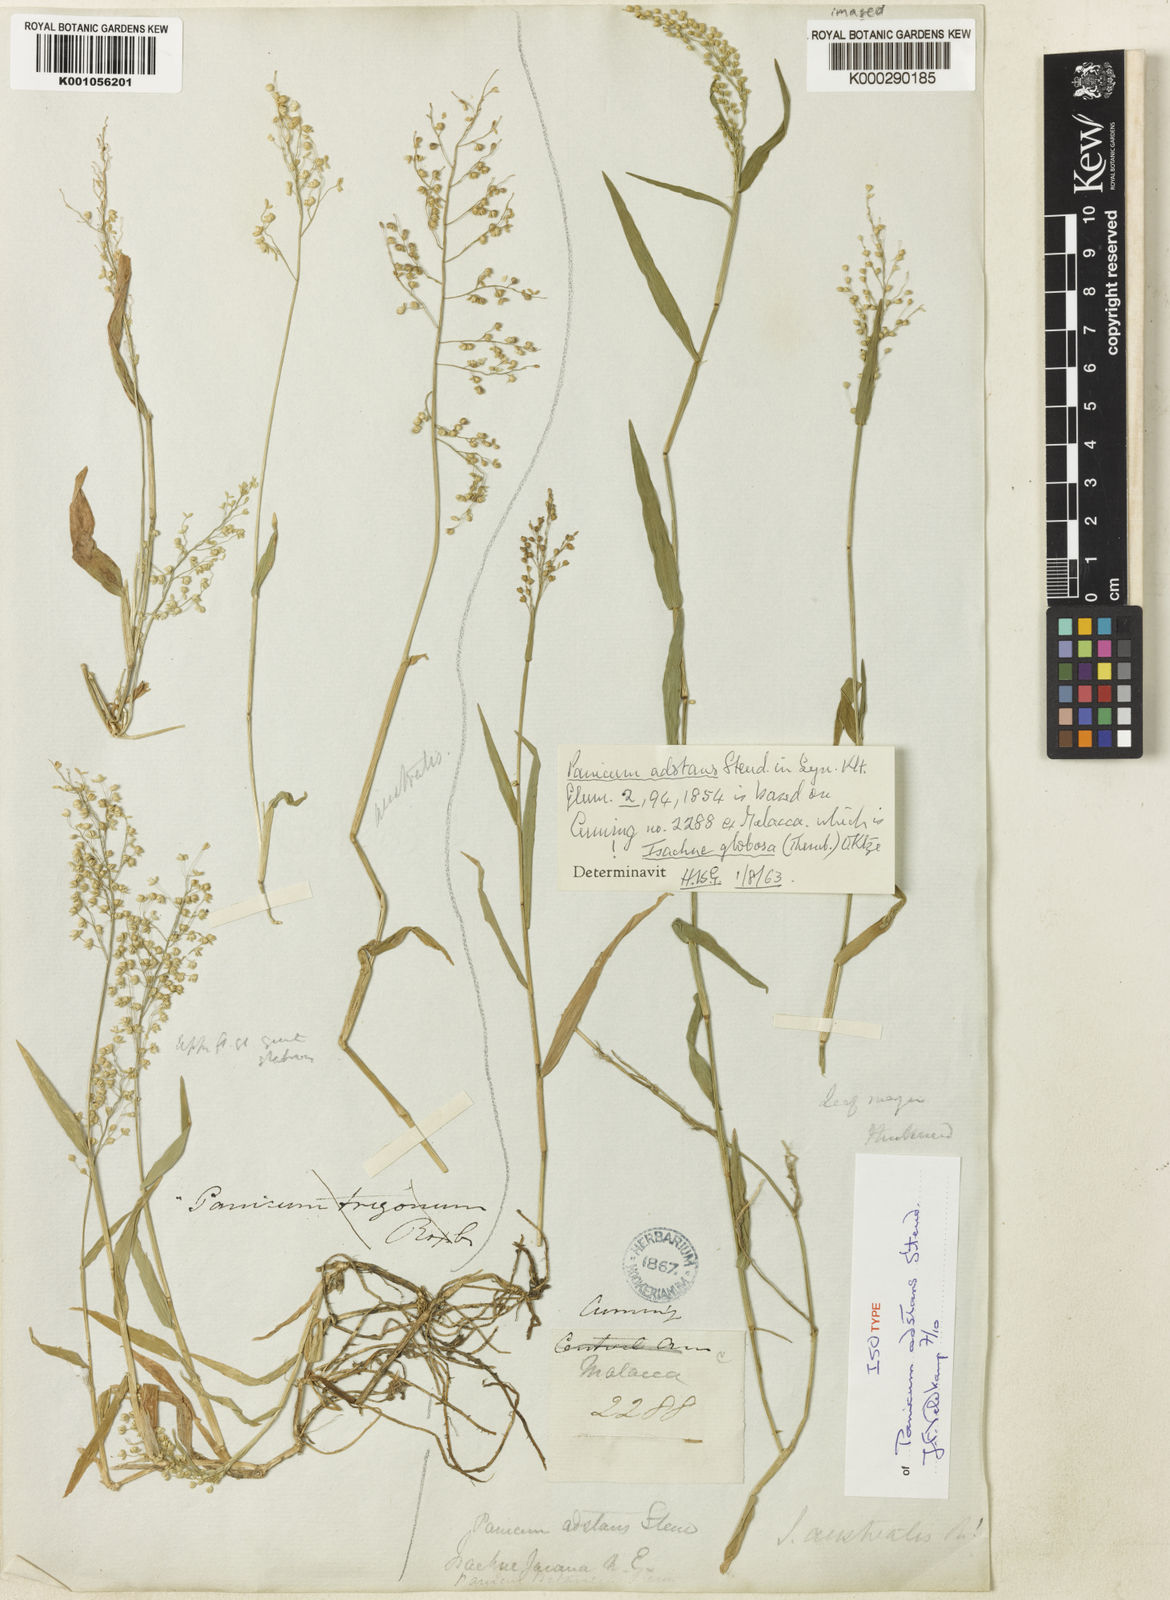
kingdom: Plantae
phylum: Tracheophyta
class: Liliopsida
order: Poales
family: Poaceae
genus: Isachne
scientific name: Isachne globosa
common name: Swamp millet
